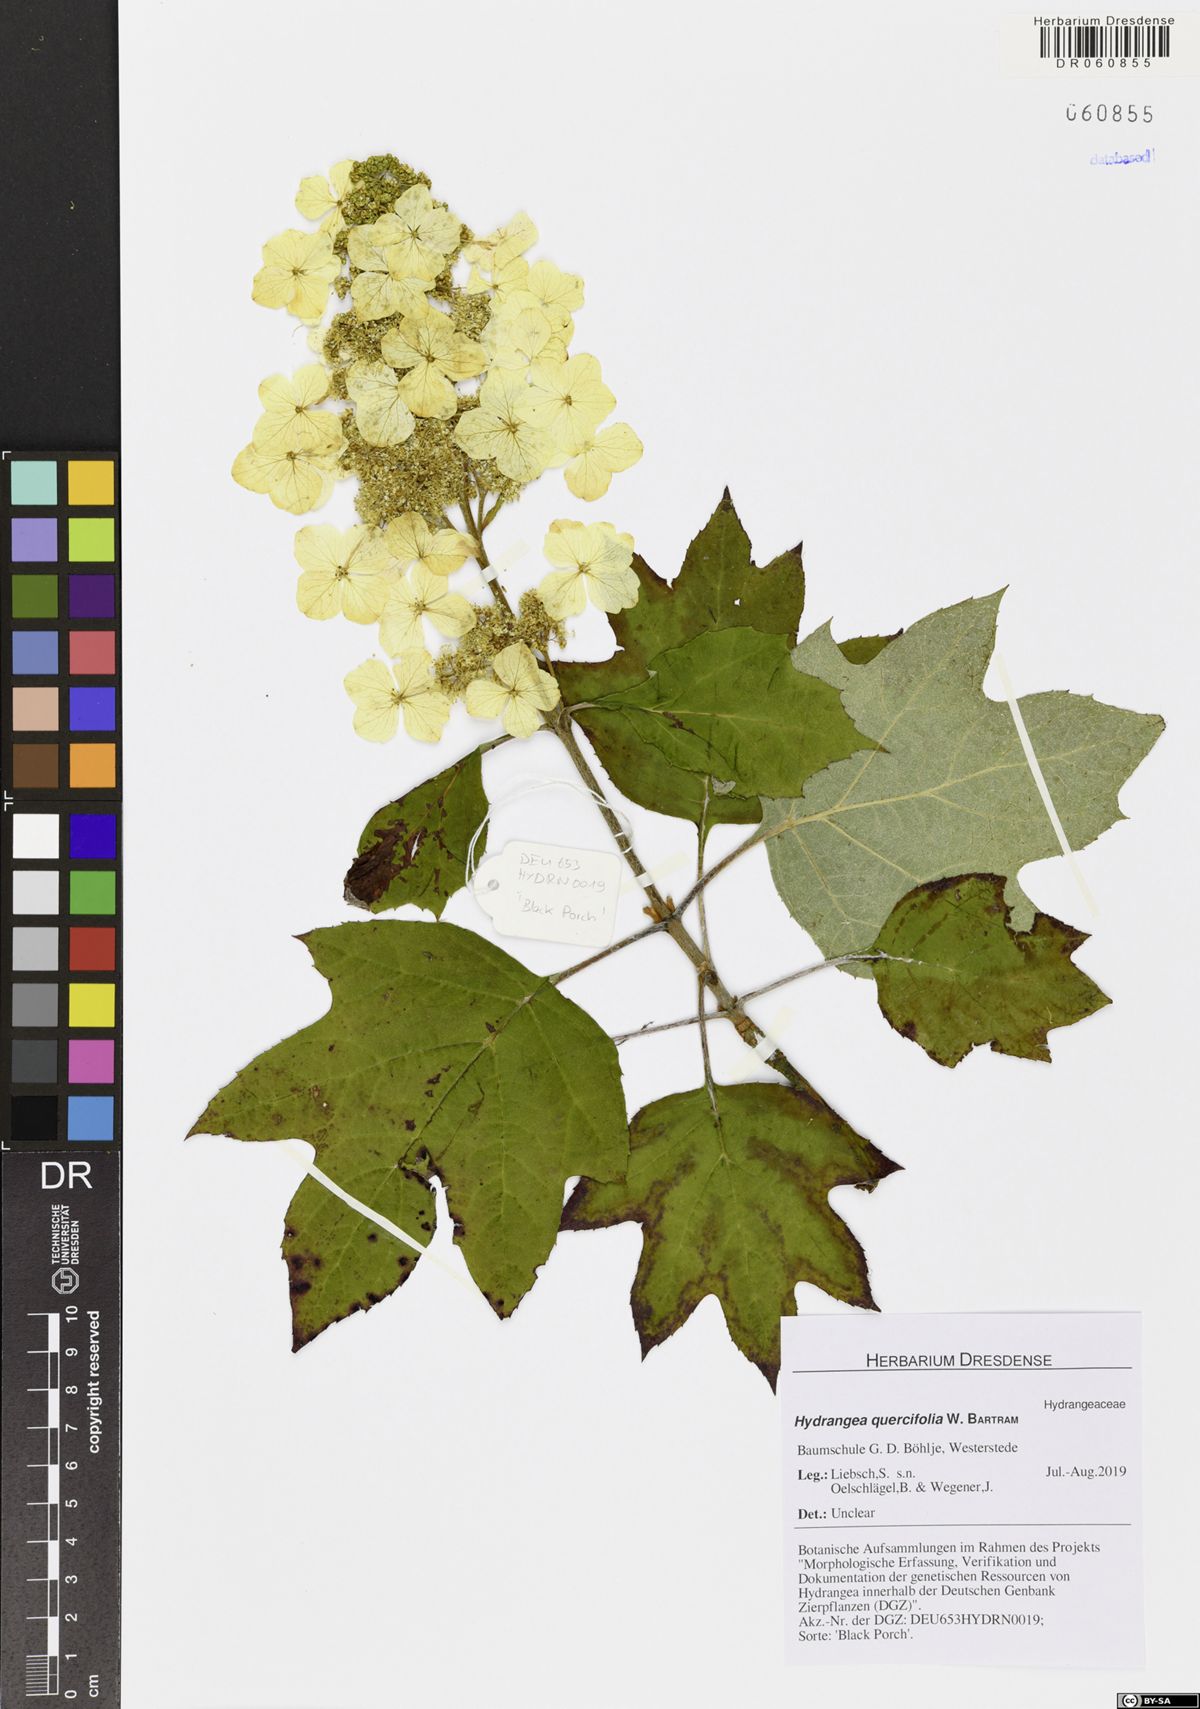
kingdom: Plantae
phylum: Tracheophyta
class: Magnoliopsida
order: Cornales
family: Hydrangeaceae
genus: Hydrangea
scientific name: Hydrangea quercifolia
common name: Oak-leaf hydrangea
